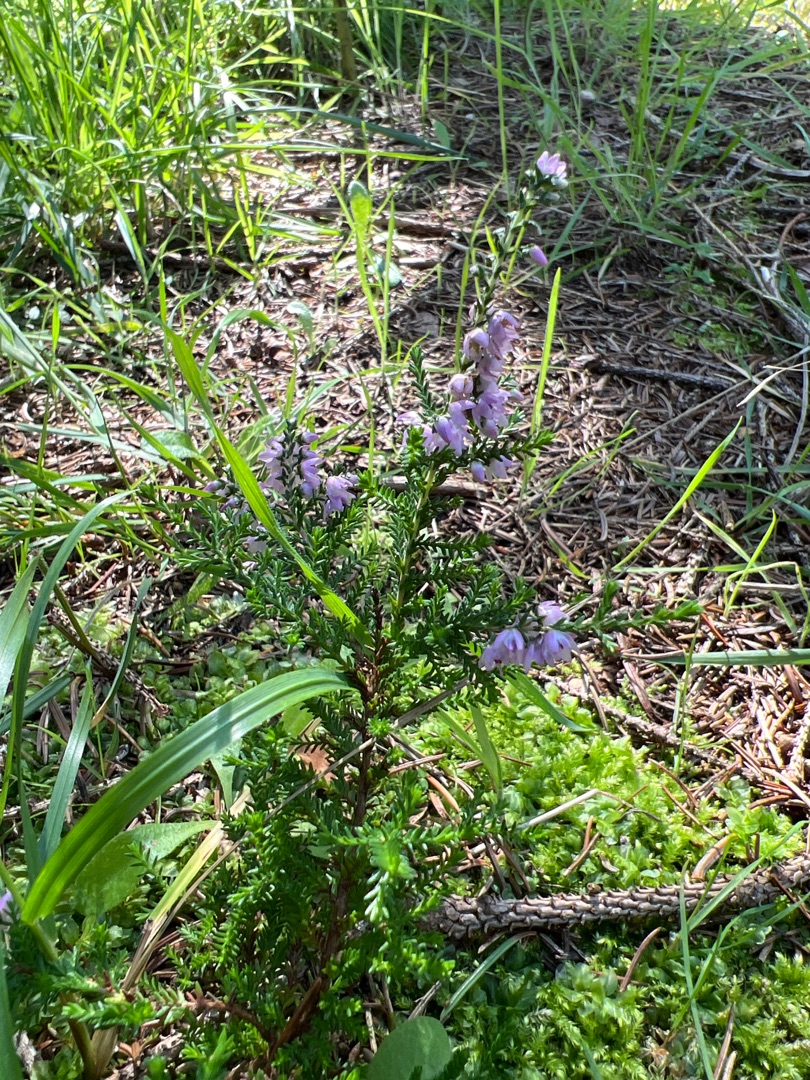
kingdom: Plantae
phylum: Tracheophyta
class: Magnoliopsida
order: Ericales
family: Ericaceae
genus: Calluna
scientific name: Calluna vulgaris
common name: Hedelyng
